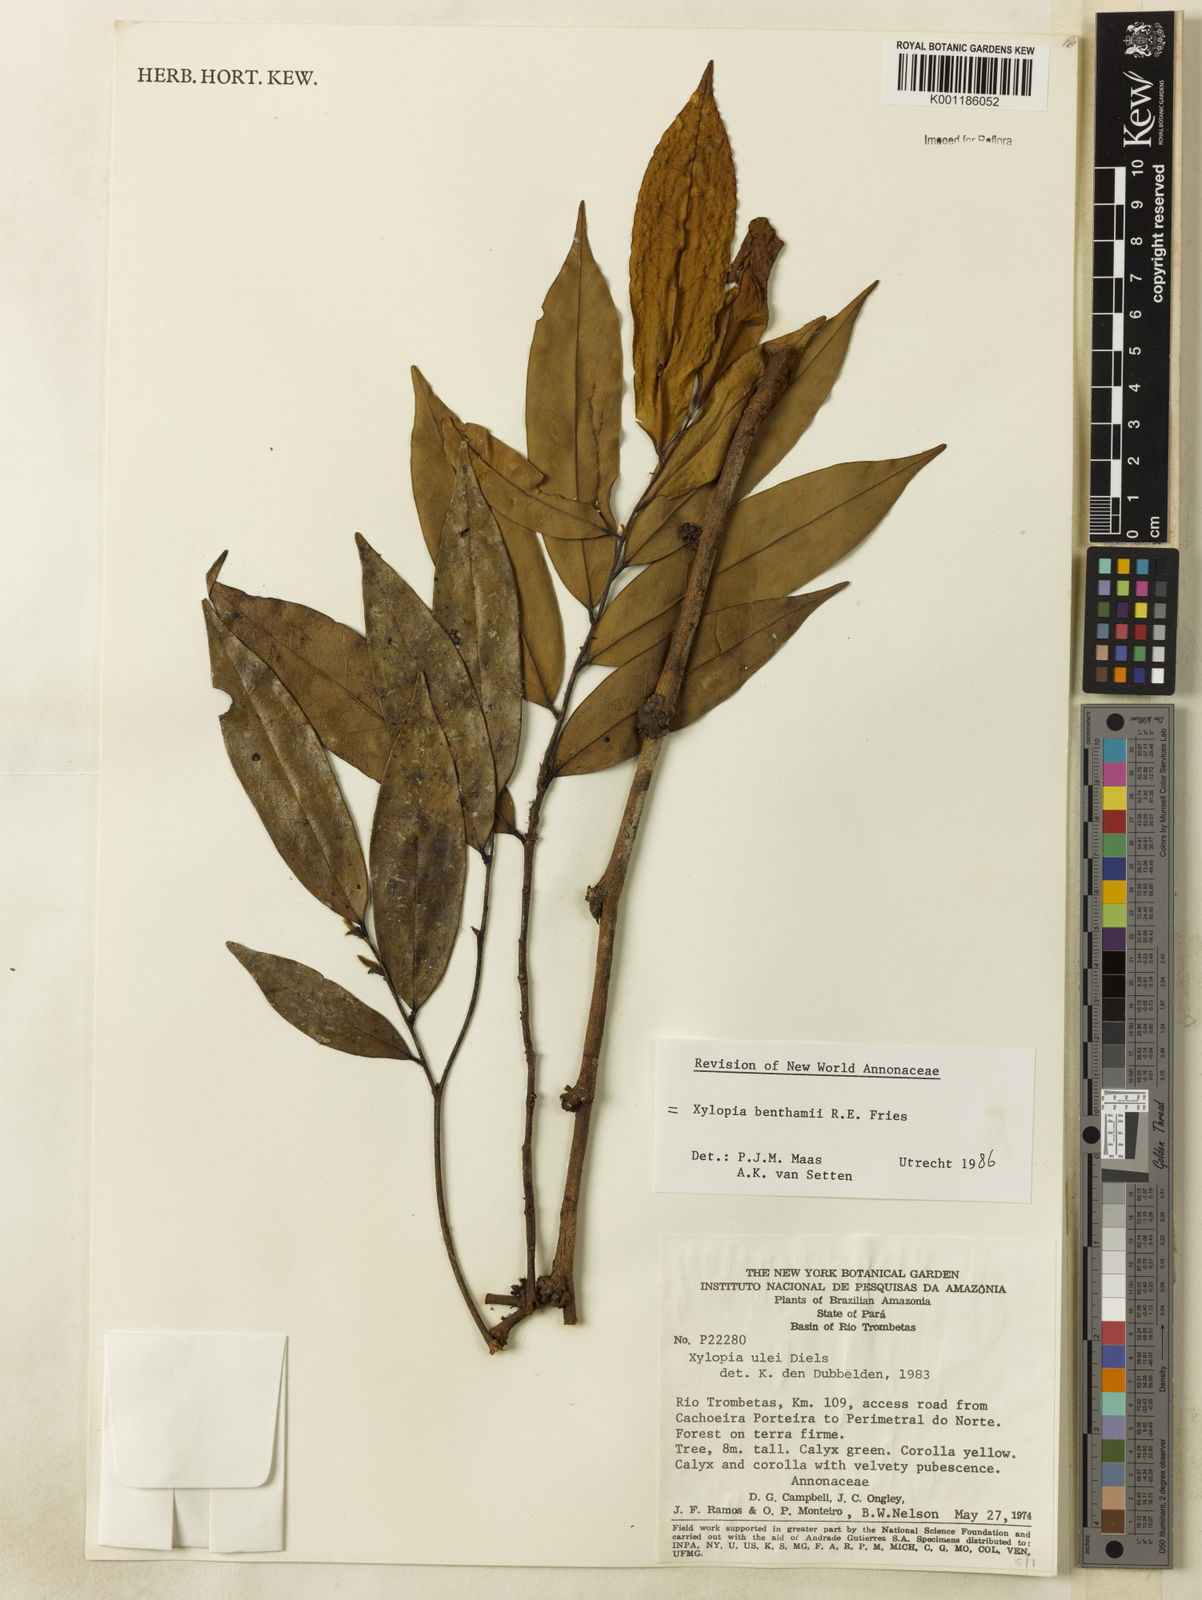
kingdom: Plantae
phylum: Tracheophyta
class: Magnoliopsida
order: Magnoliales
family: Annonaceae
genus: Xylopia
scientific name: Xylopia benthamii
